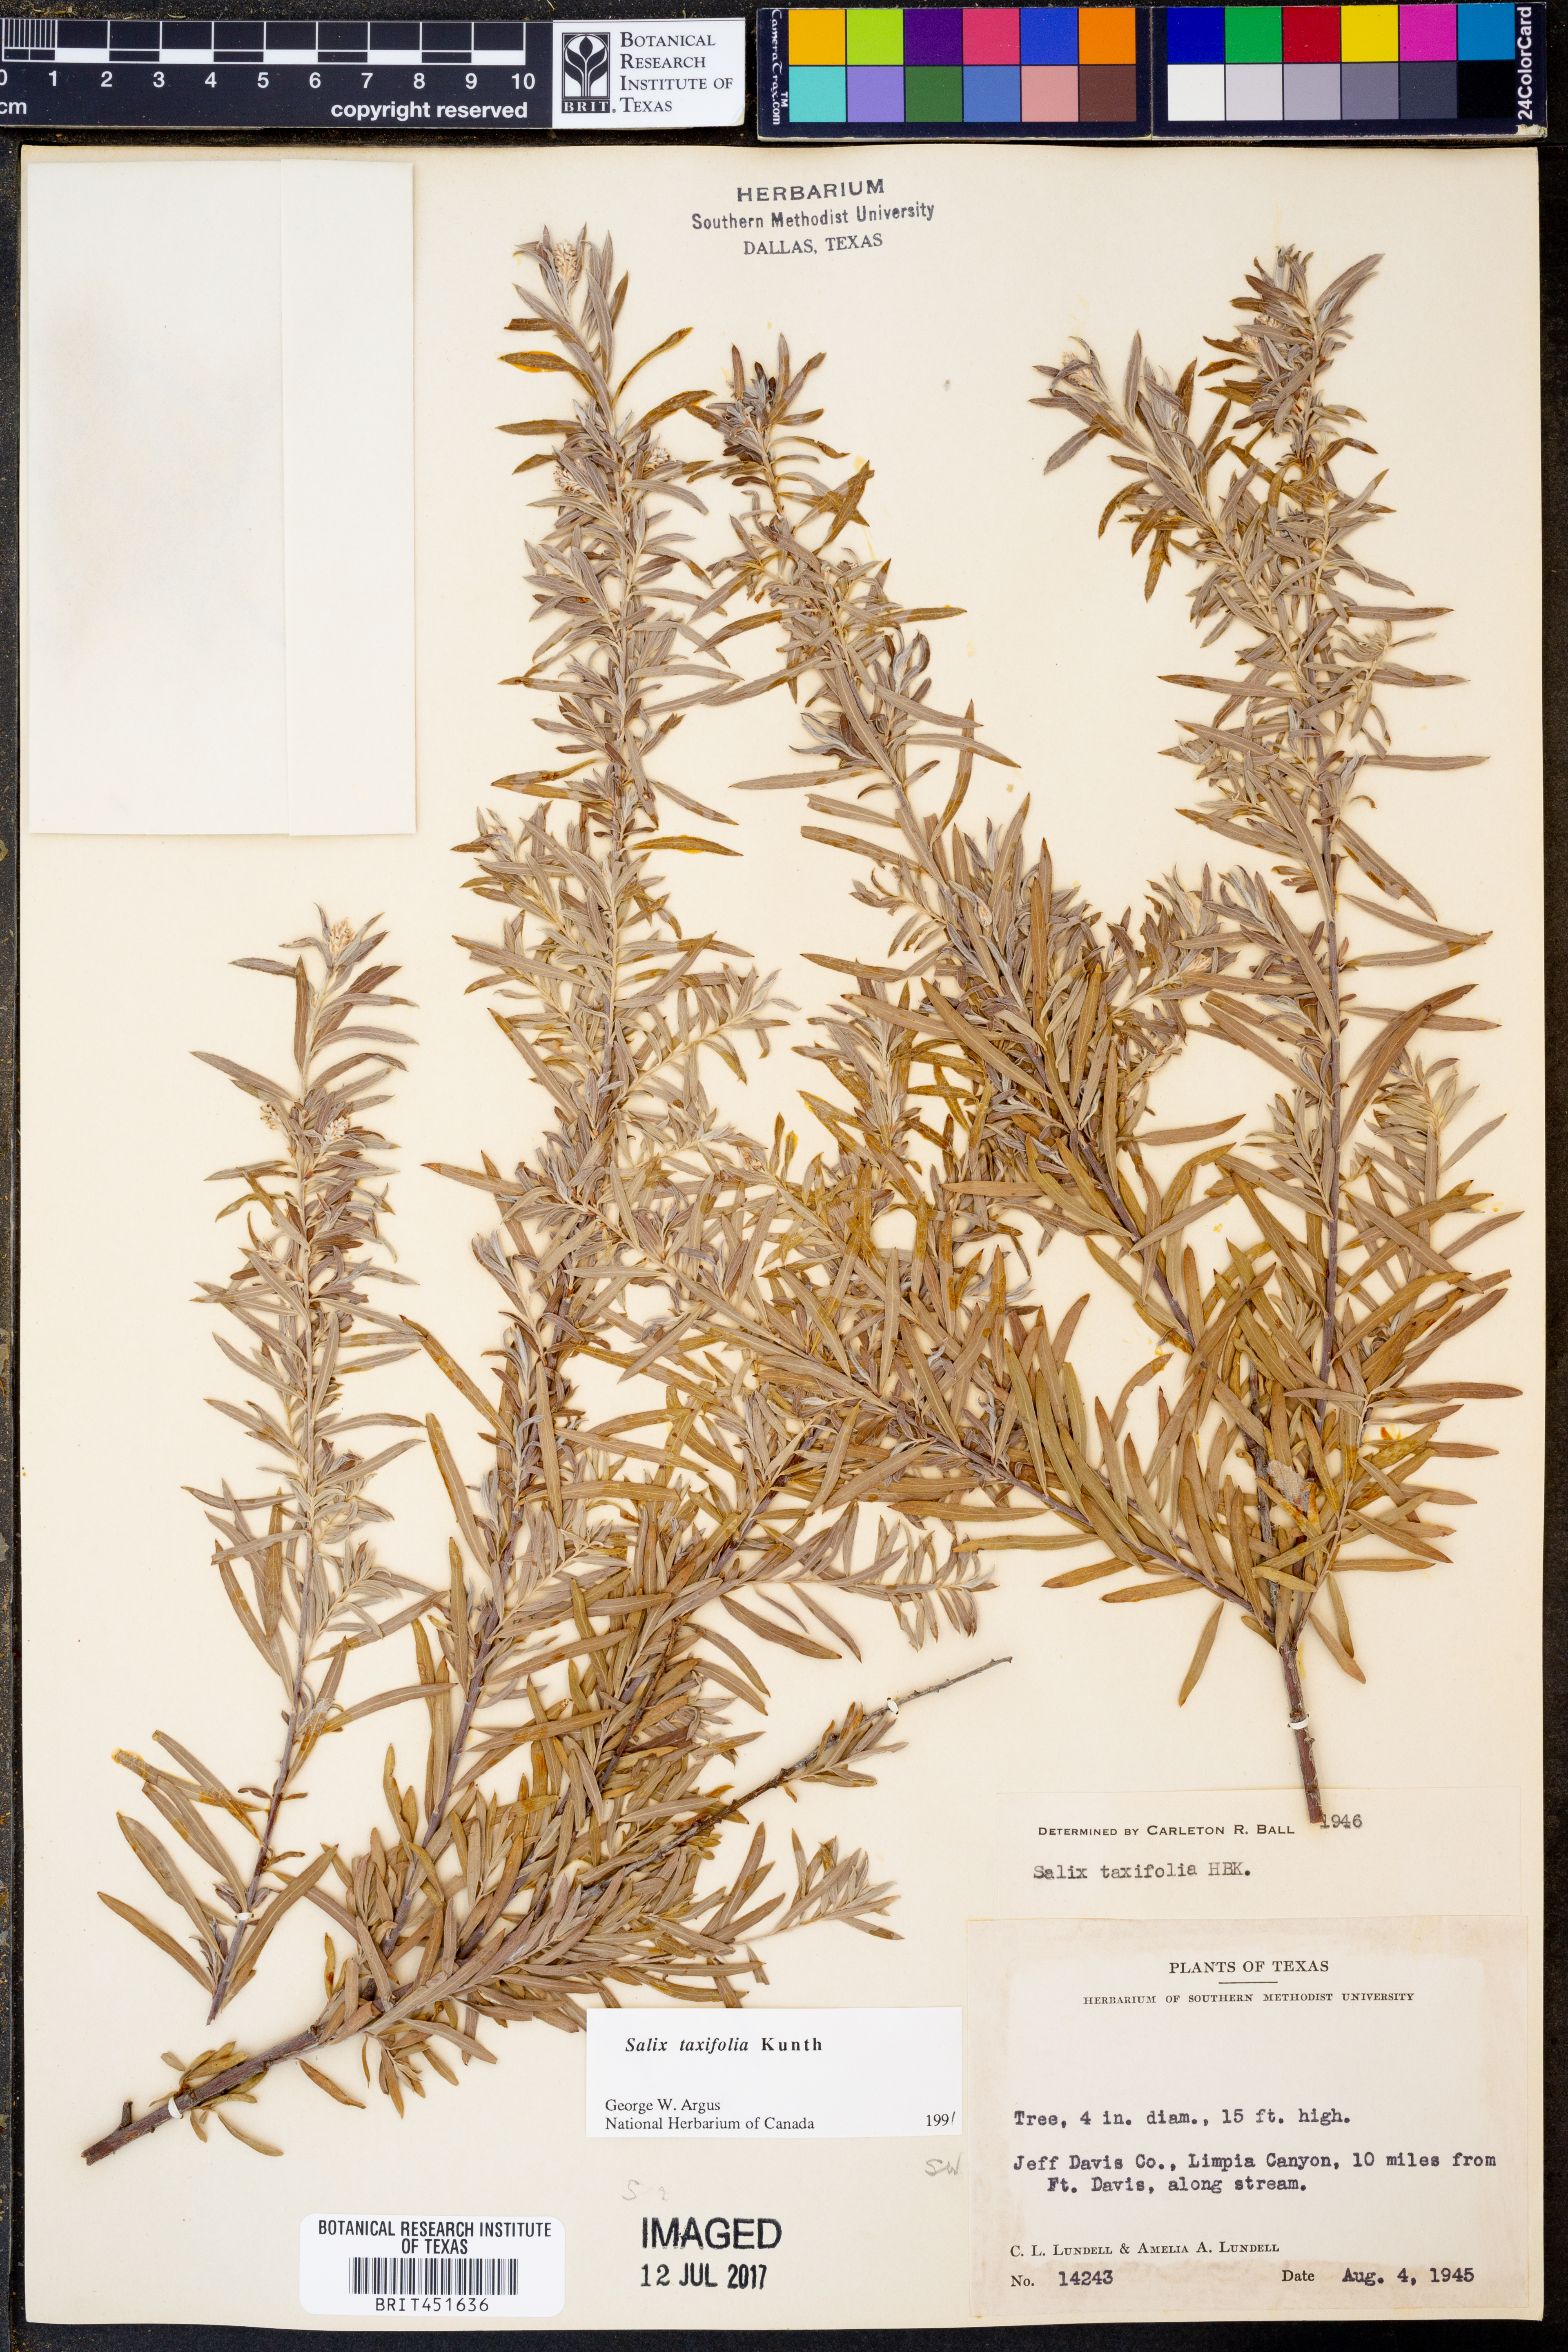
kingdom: Plantae
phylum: Tracheophyta
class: Magnoliopsida
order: Malpighiales
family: Salicaceae
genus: Salix
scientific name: Salix taxifolia
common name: Yew-leaf willow
